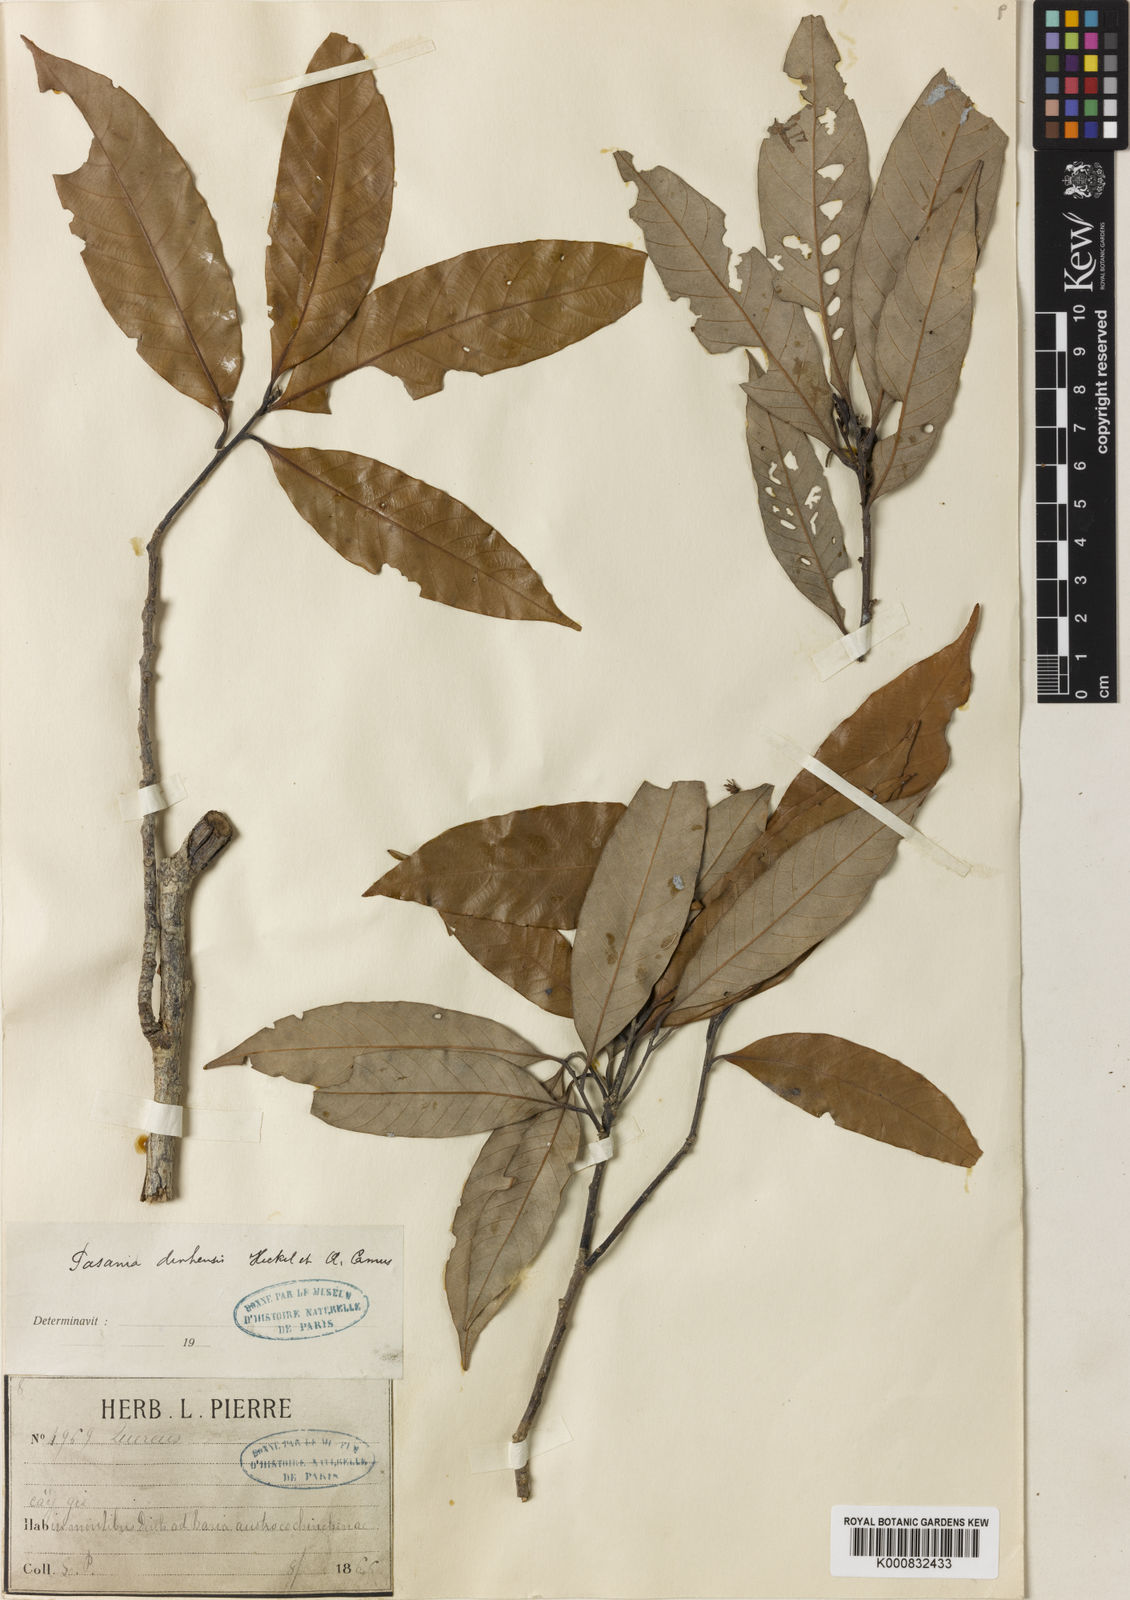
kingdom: Plantae
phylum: Tracheophyta
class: Magnoliopsida
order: Fagales
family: Fagaceae
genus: Lithocarpus
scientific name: Lithocarpus dinhensis
